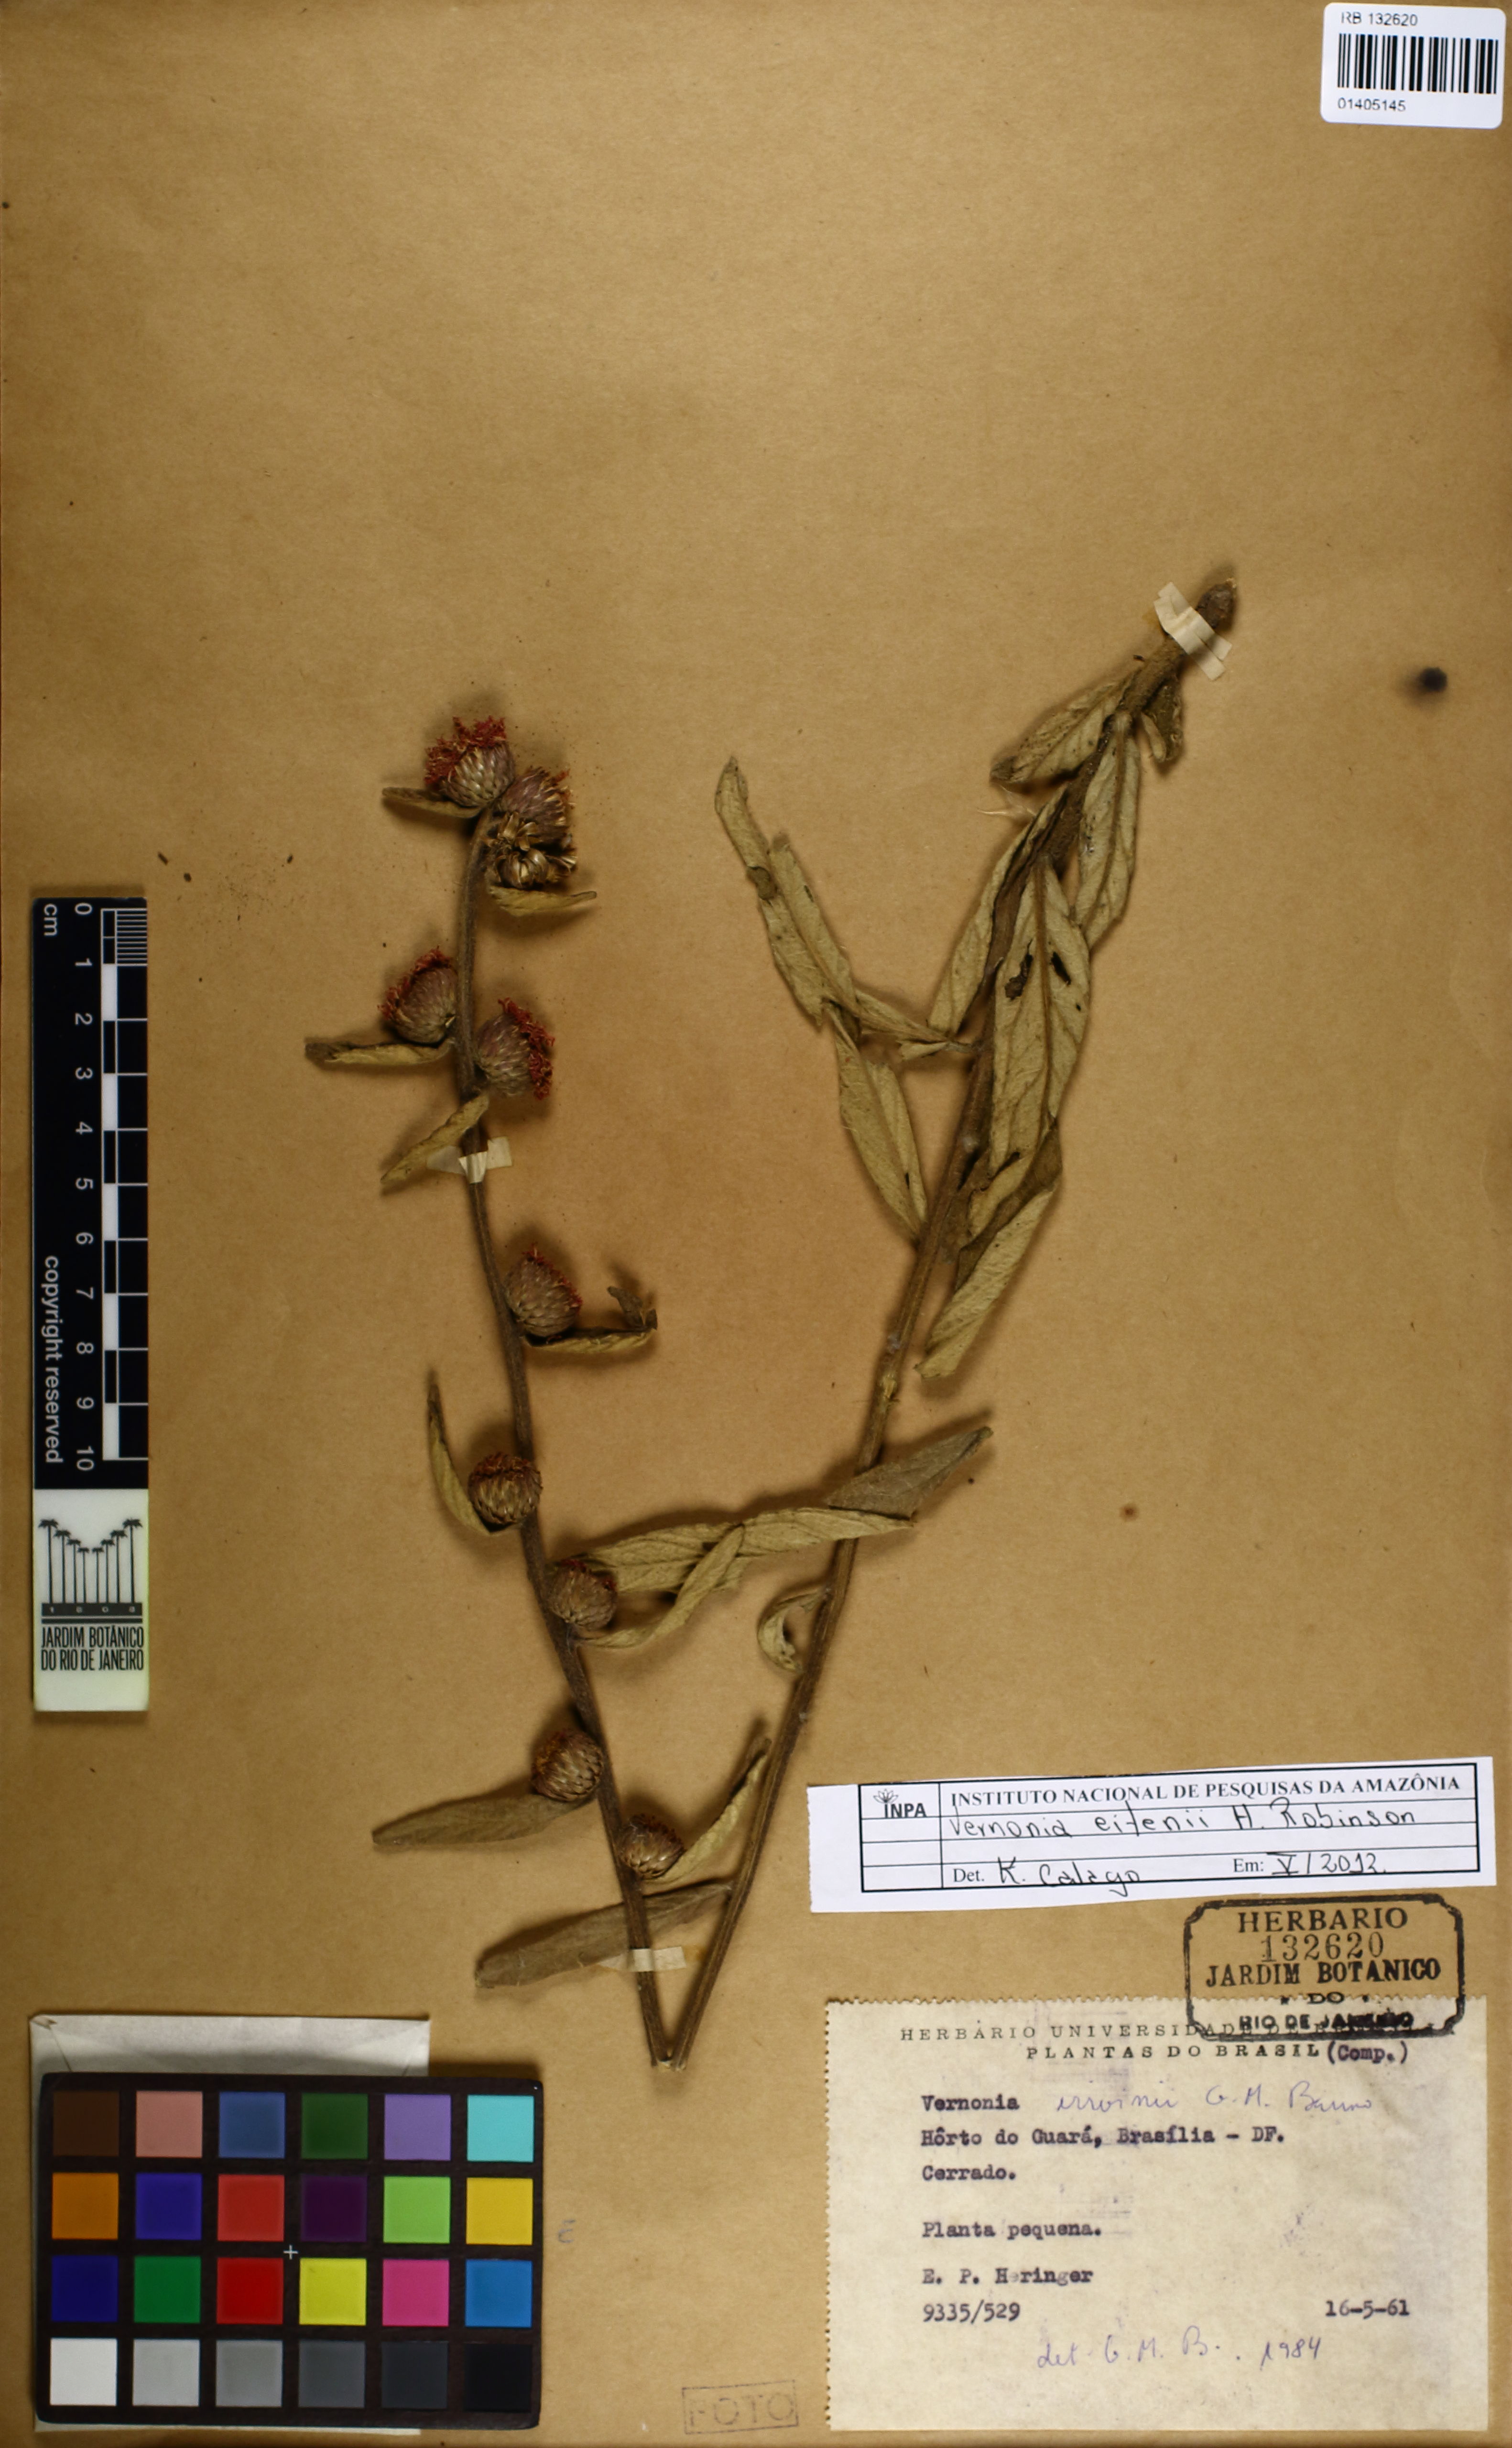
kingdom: Plantae
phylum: Tracheophyta
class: Magnoliopsida
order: Asterales
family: Asteraceae
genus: Lessingianthus
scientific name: Lessingianthus eitenii
